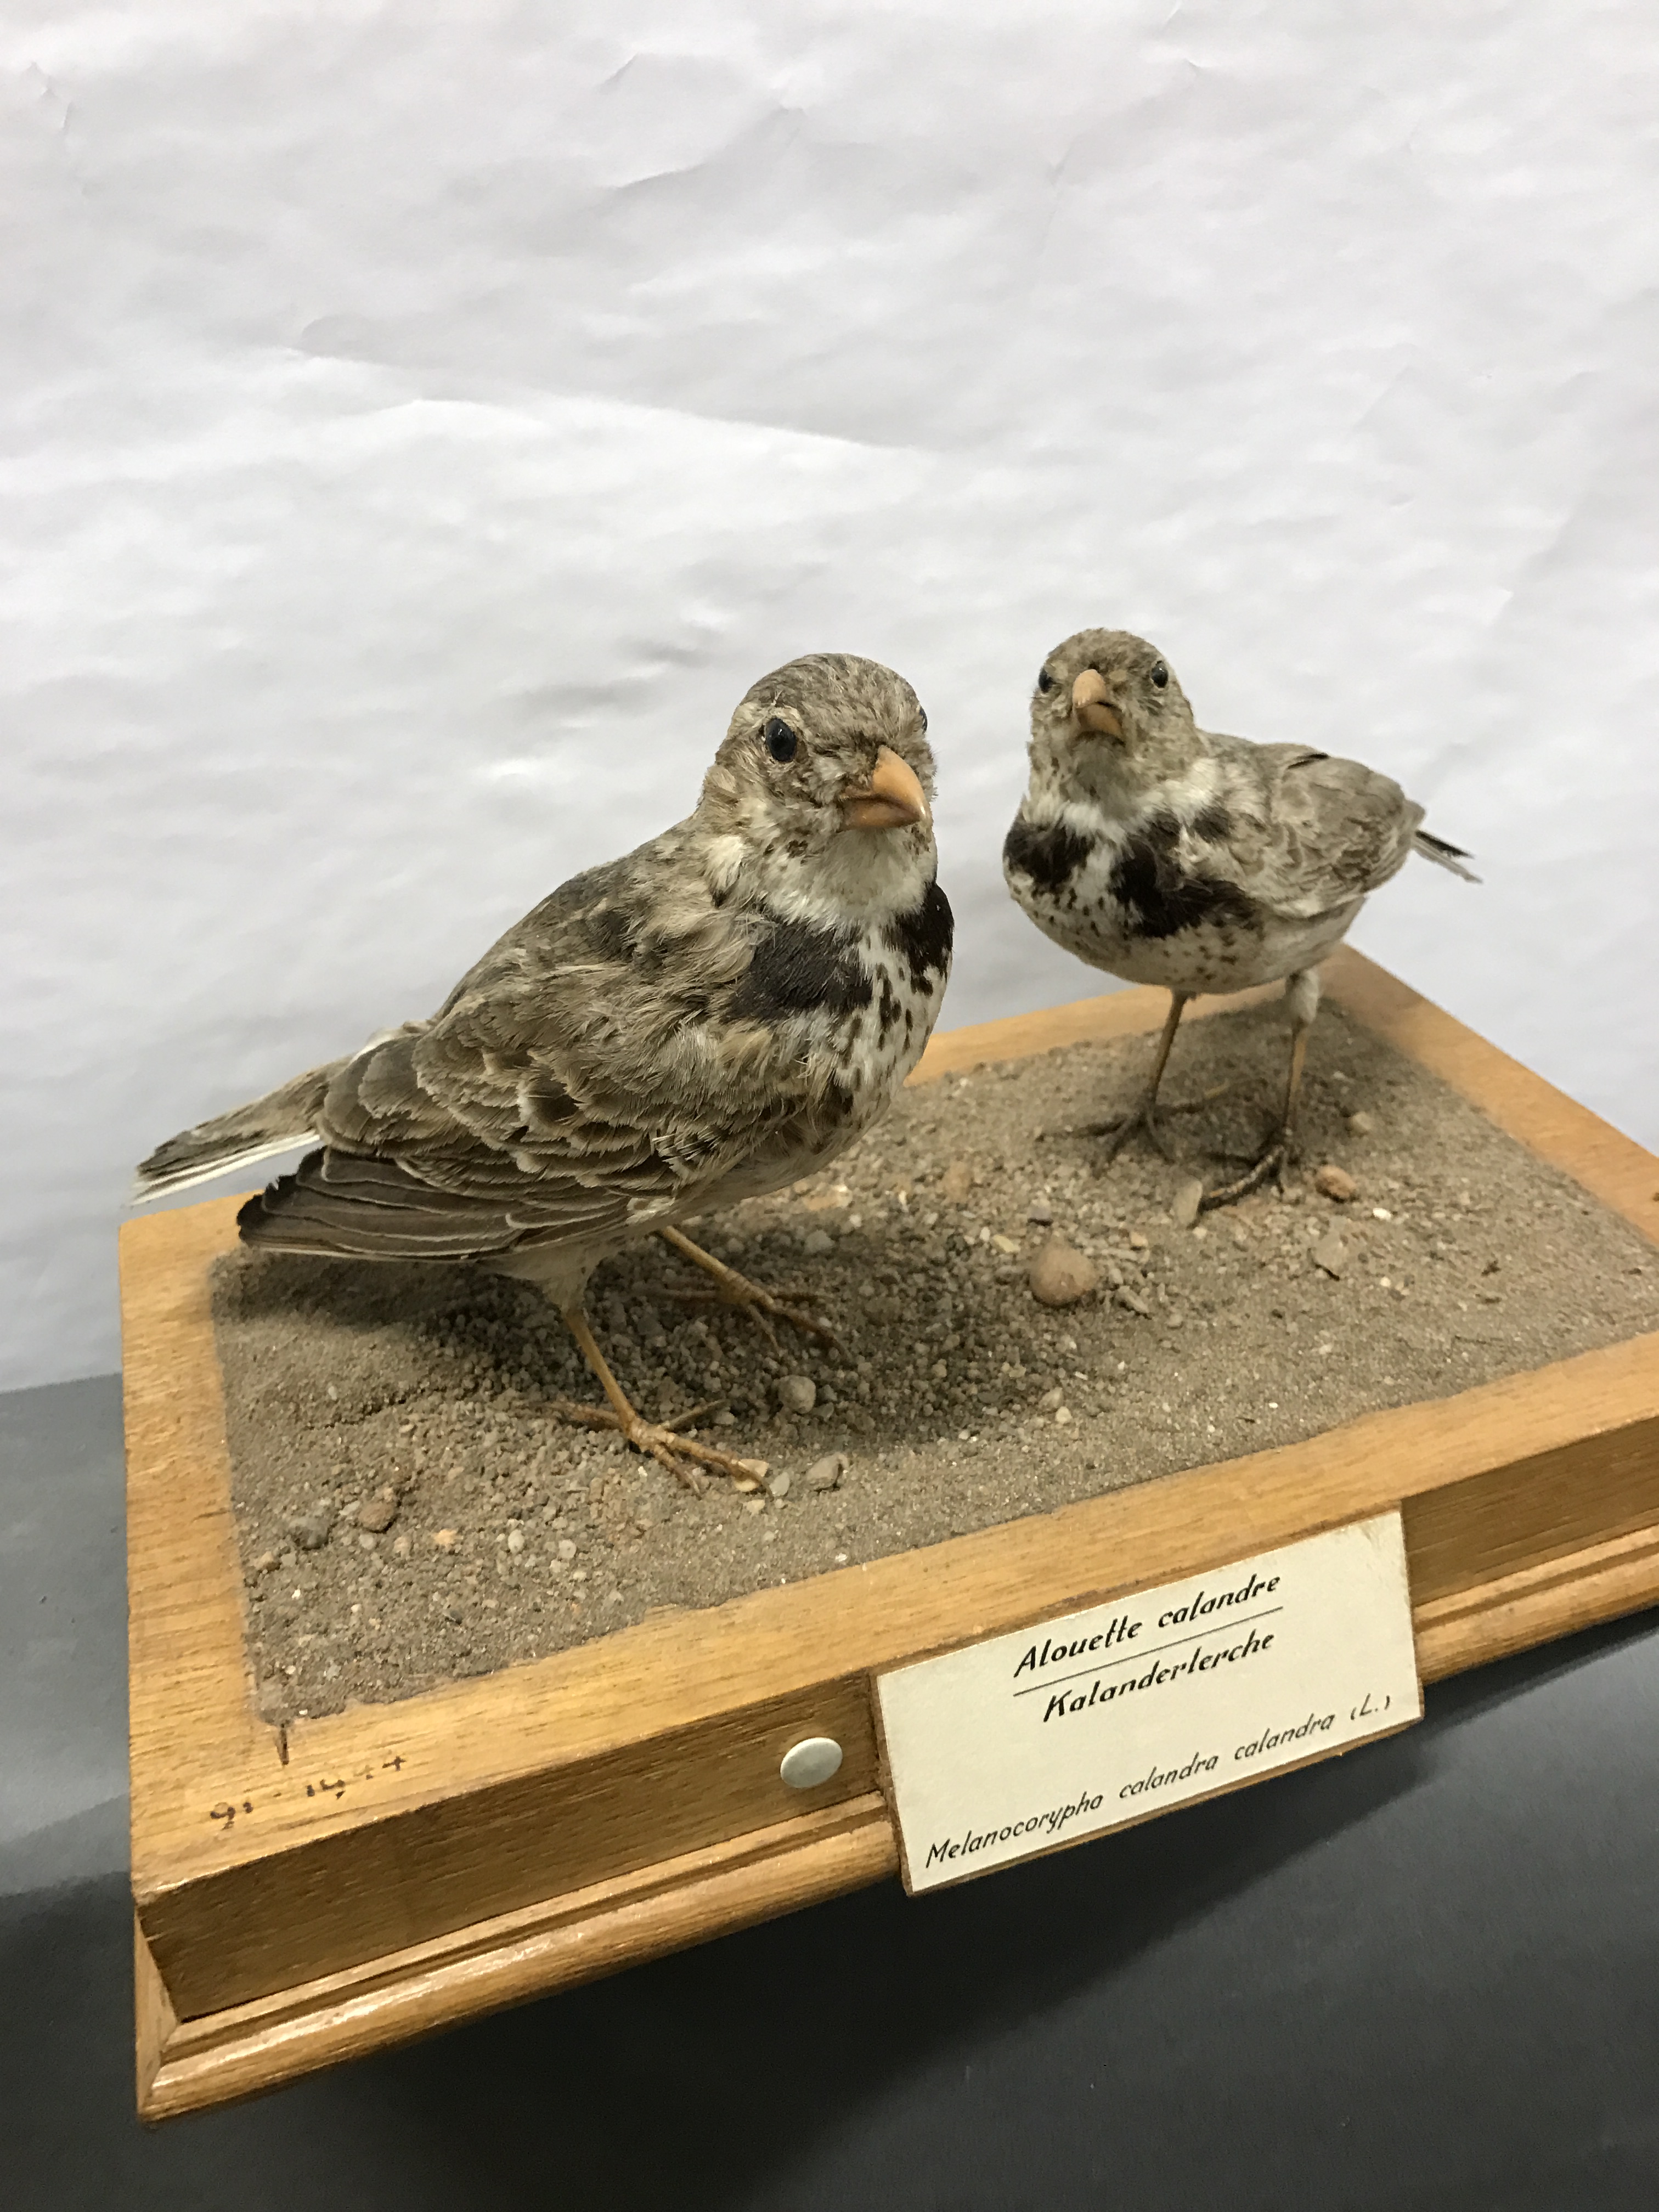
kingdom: Animalia
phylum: Chordata
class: Aves
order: Passeriformes
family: Alaudidae
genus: Melanocorypha
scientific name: Melanocorypha calandra
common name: Calandra lark
